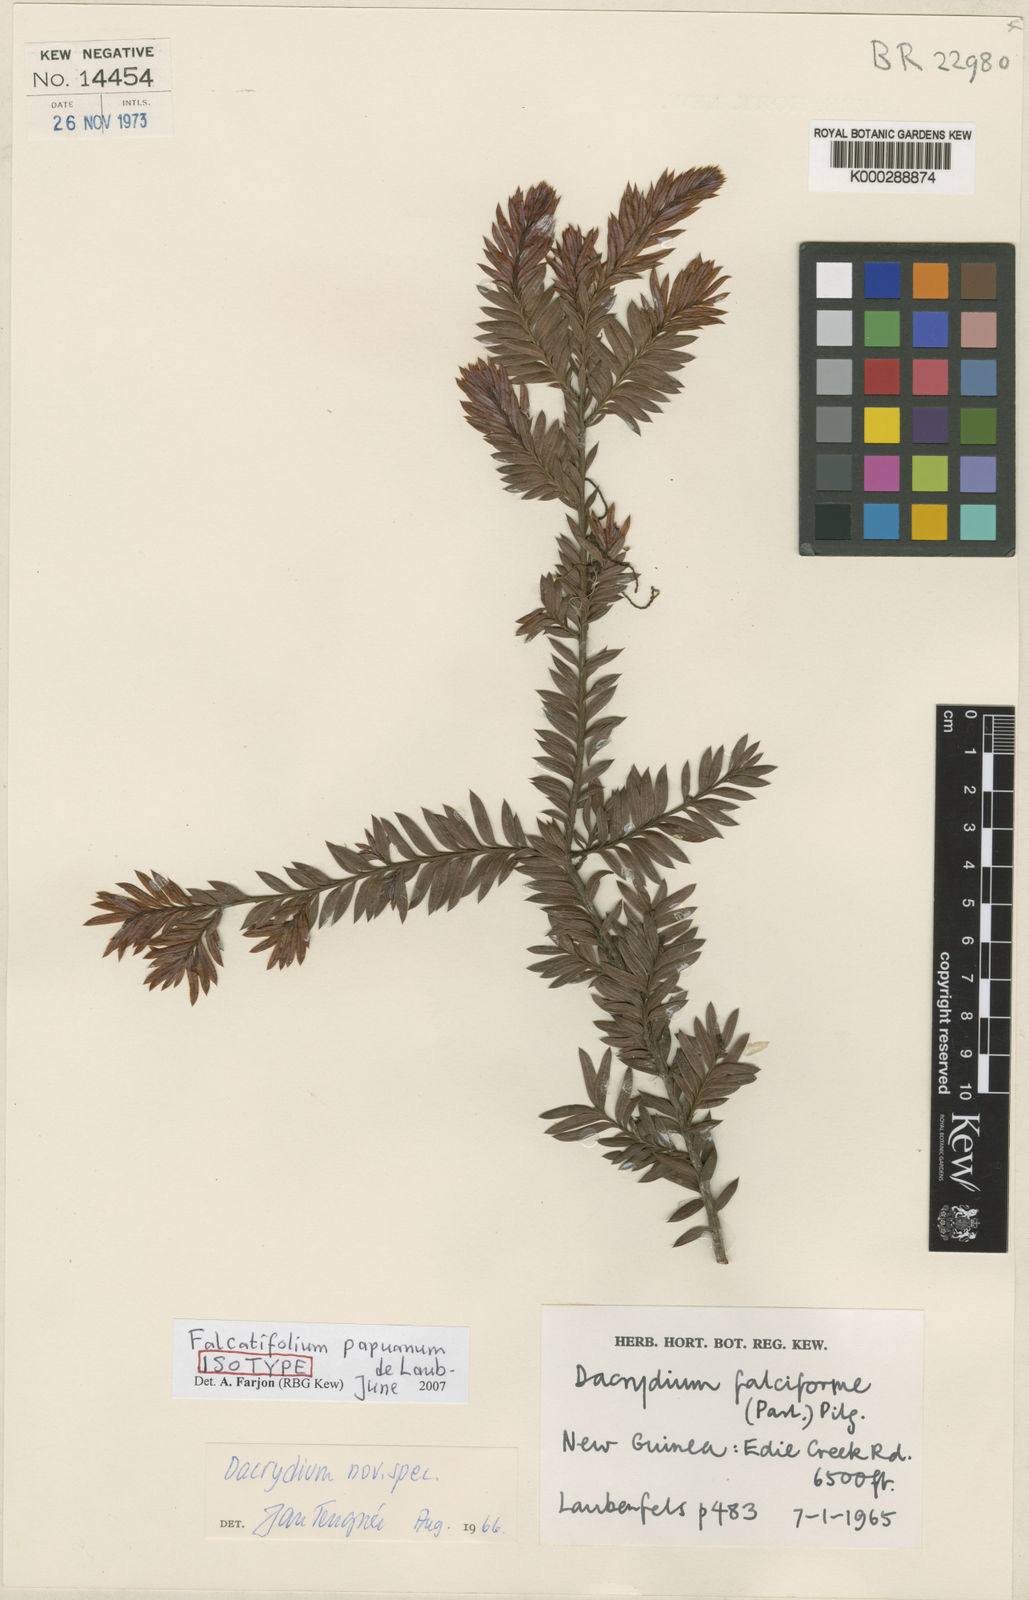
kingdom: Plantae
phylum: Tracheophyta
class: Pinopsida
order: Pinales
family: Podocarpaceae
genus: Falcatifolium
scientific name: Falcatifolium papuanum
